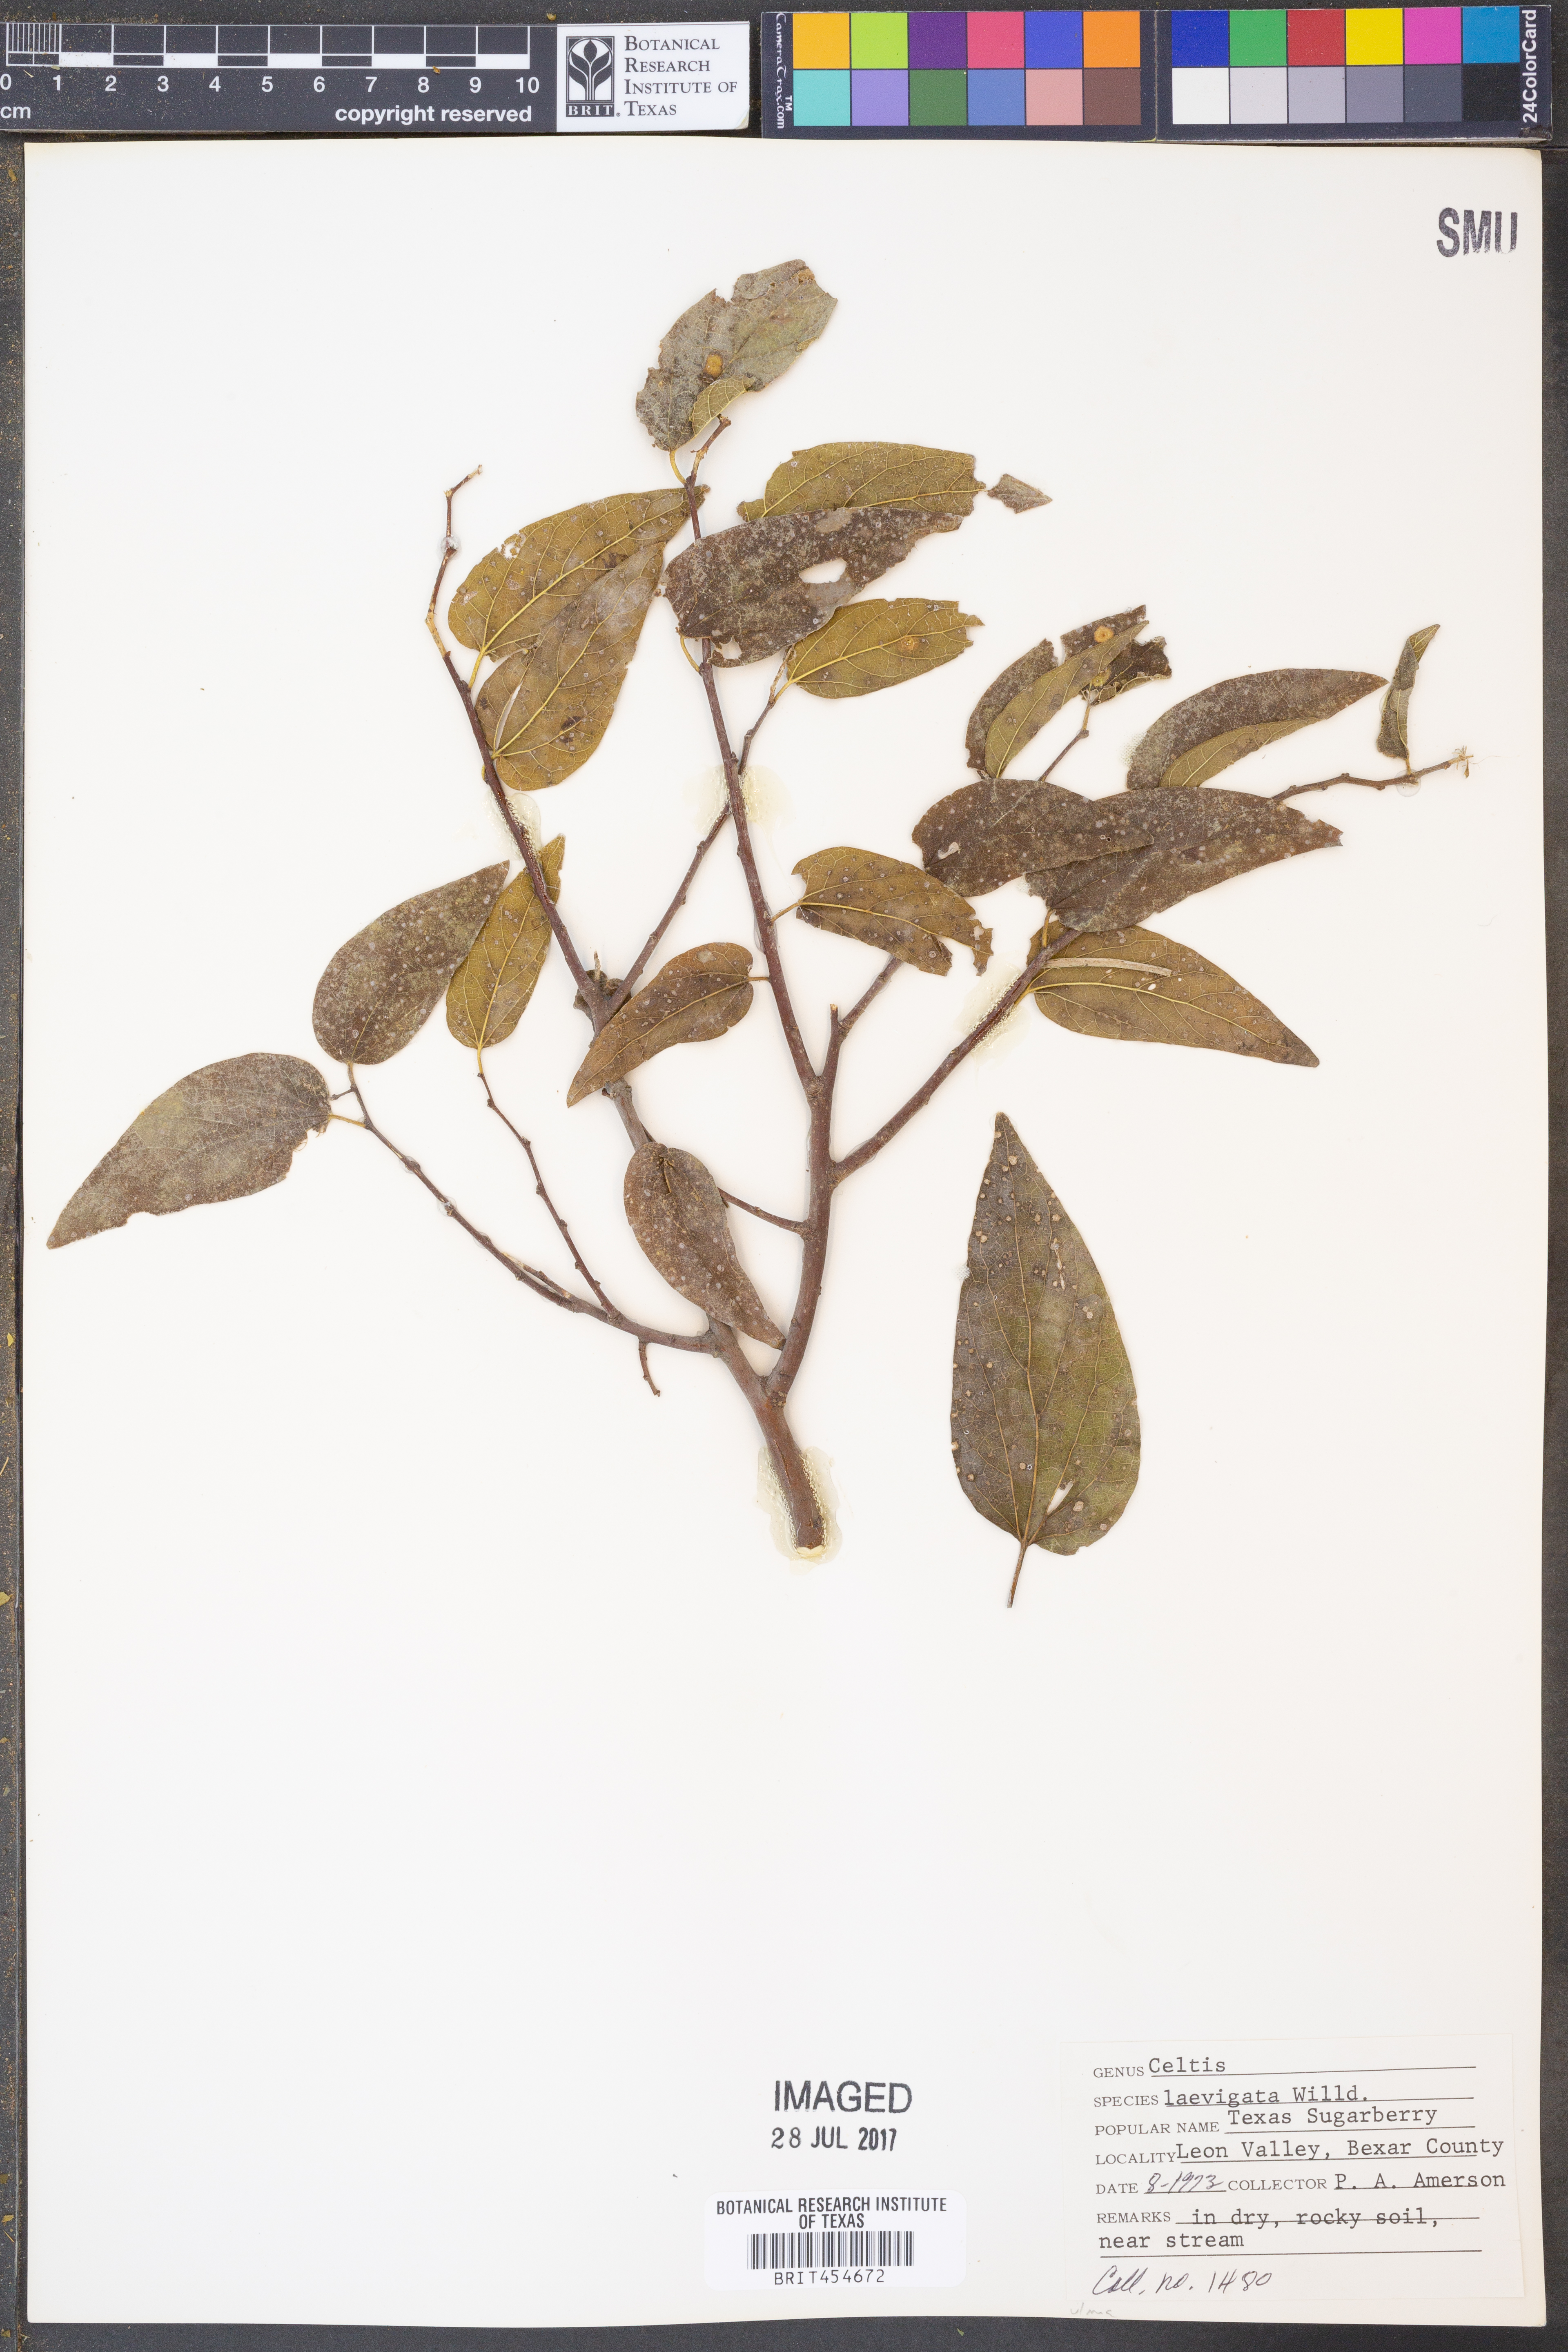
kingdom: Plantae
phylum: Tracheophyta
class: Magnoliopsida
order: Rosales
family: Cannabaceae
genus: Celtis
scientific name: Celtis laevigata
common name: Sugarberry
